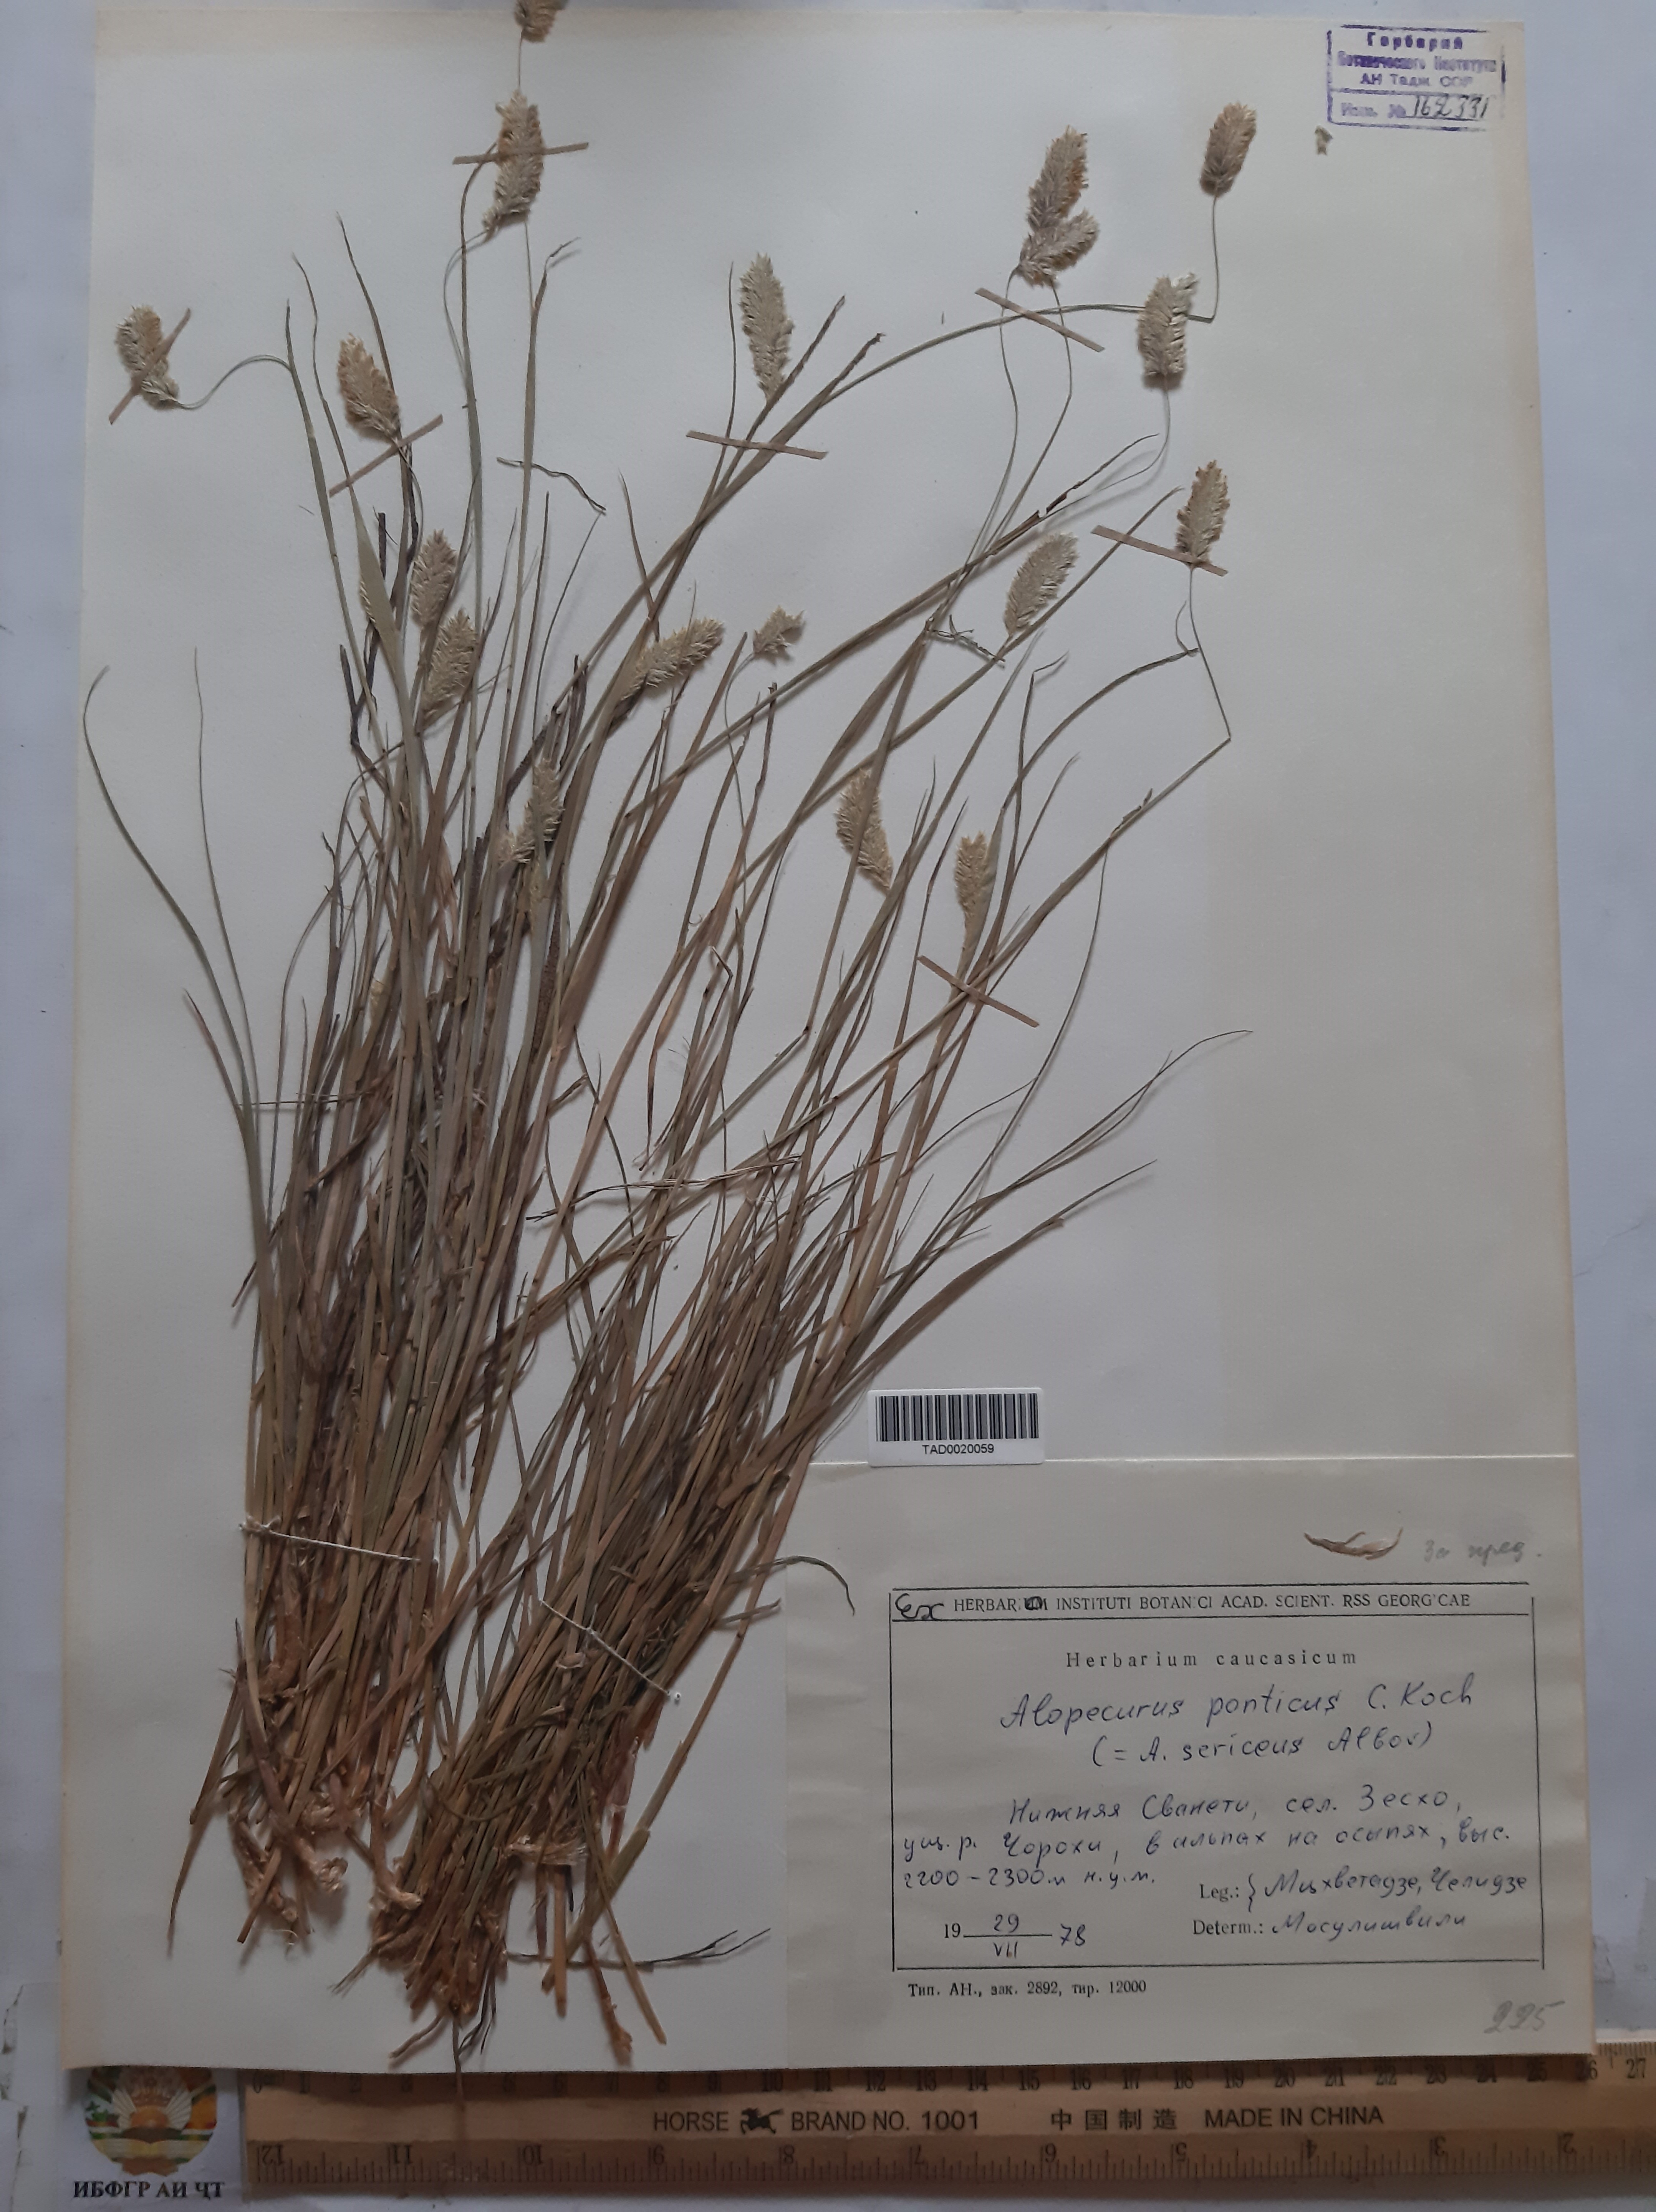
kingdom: Plantae
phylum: Tracheophyta
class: Liliopsida
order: Poales
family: Poaceae
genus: Alopecurus
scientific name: Alopecurus ponticus
